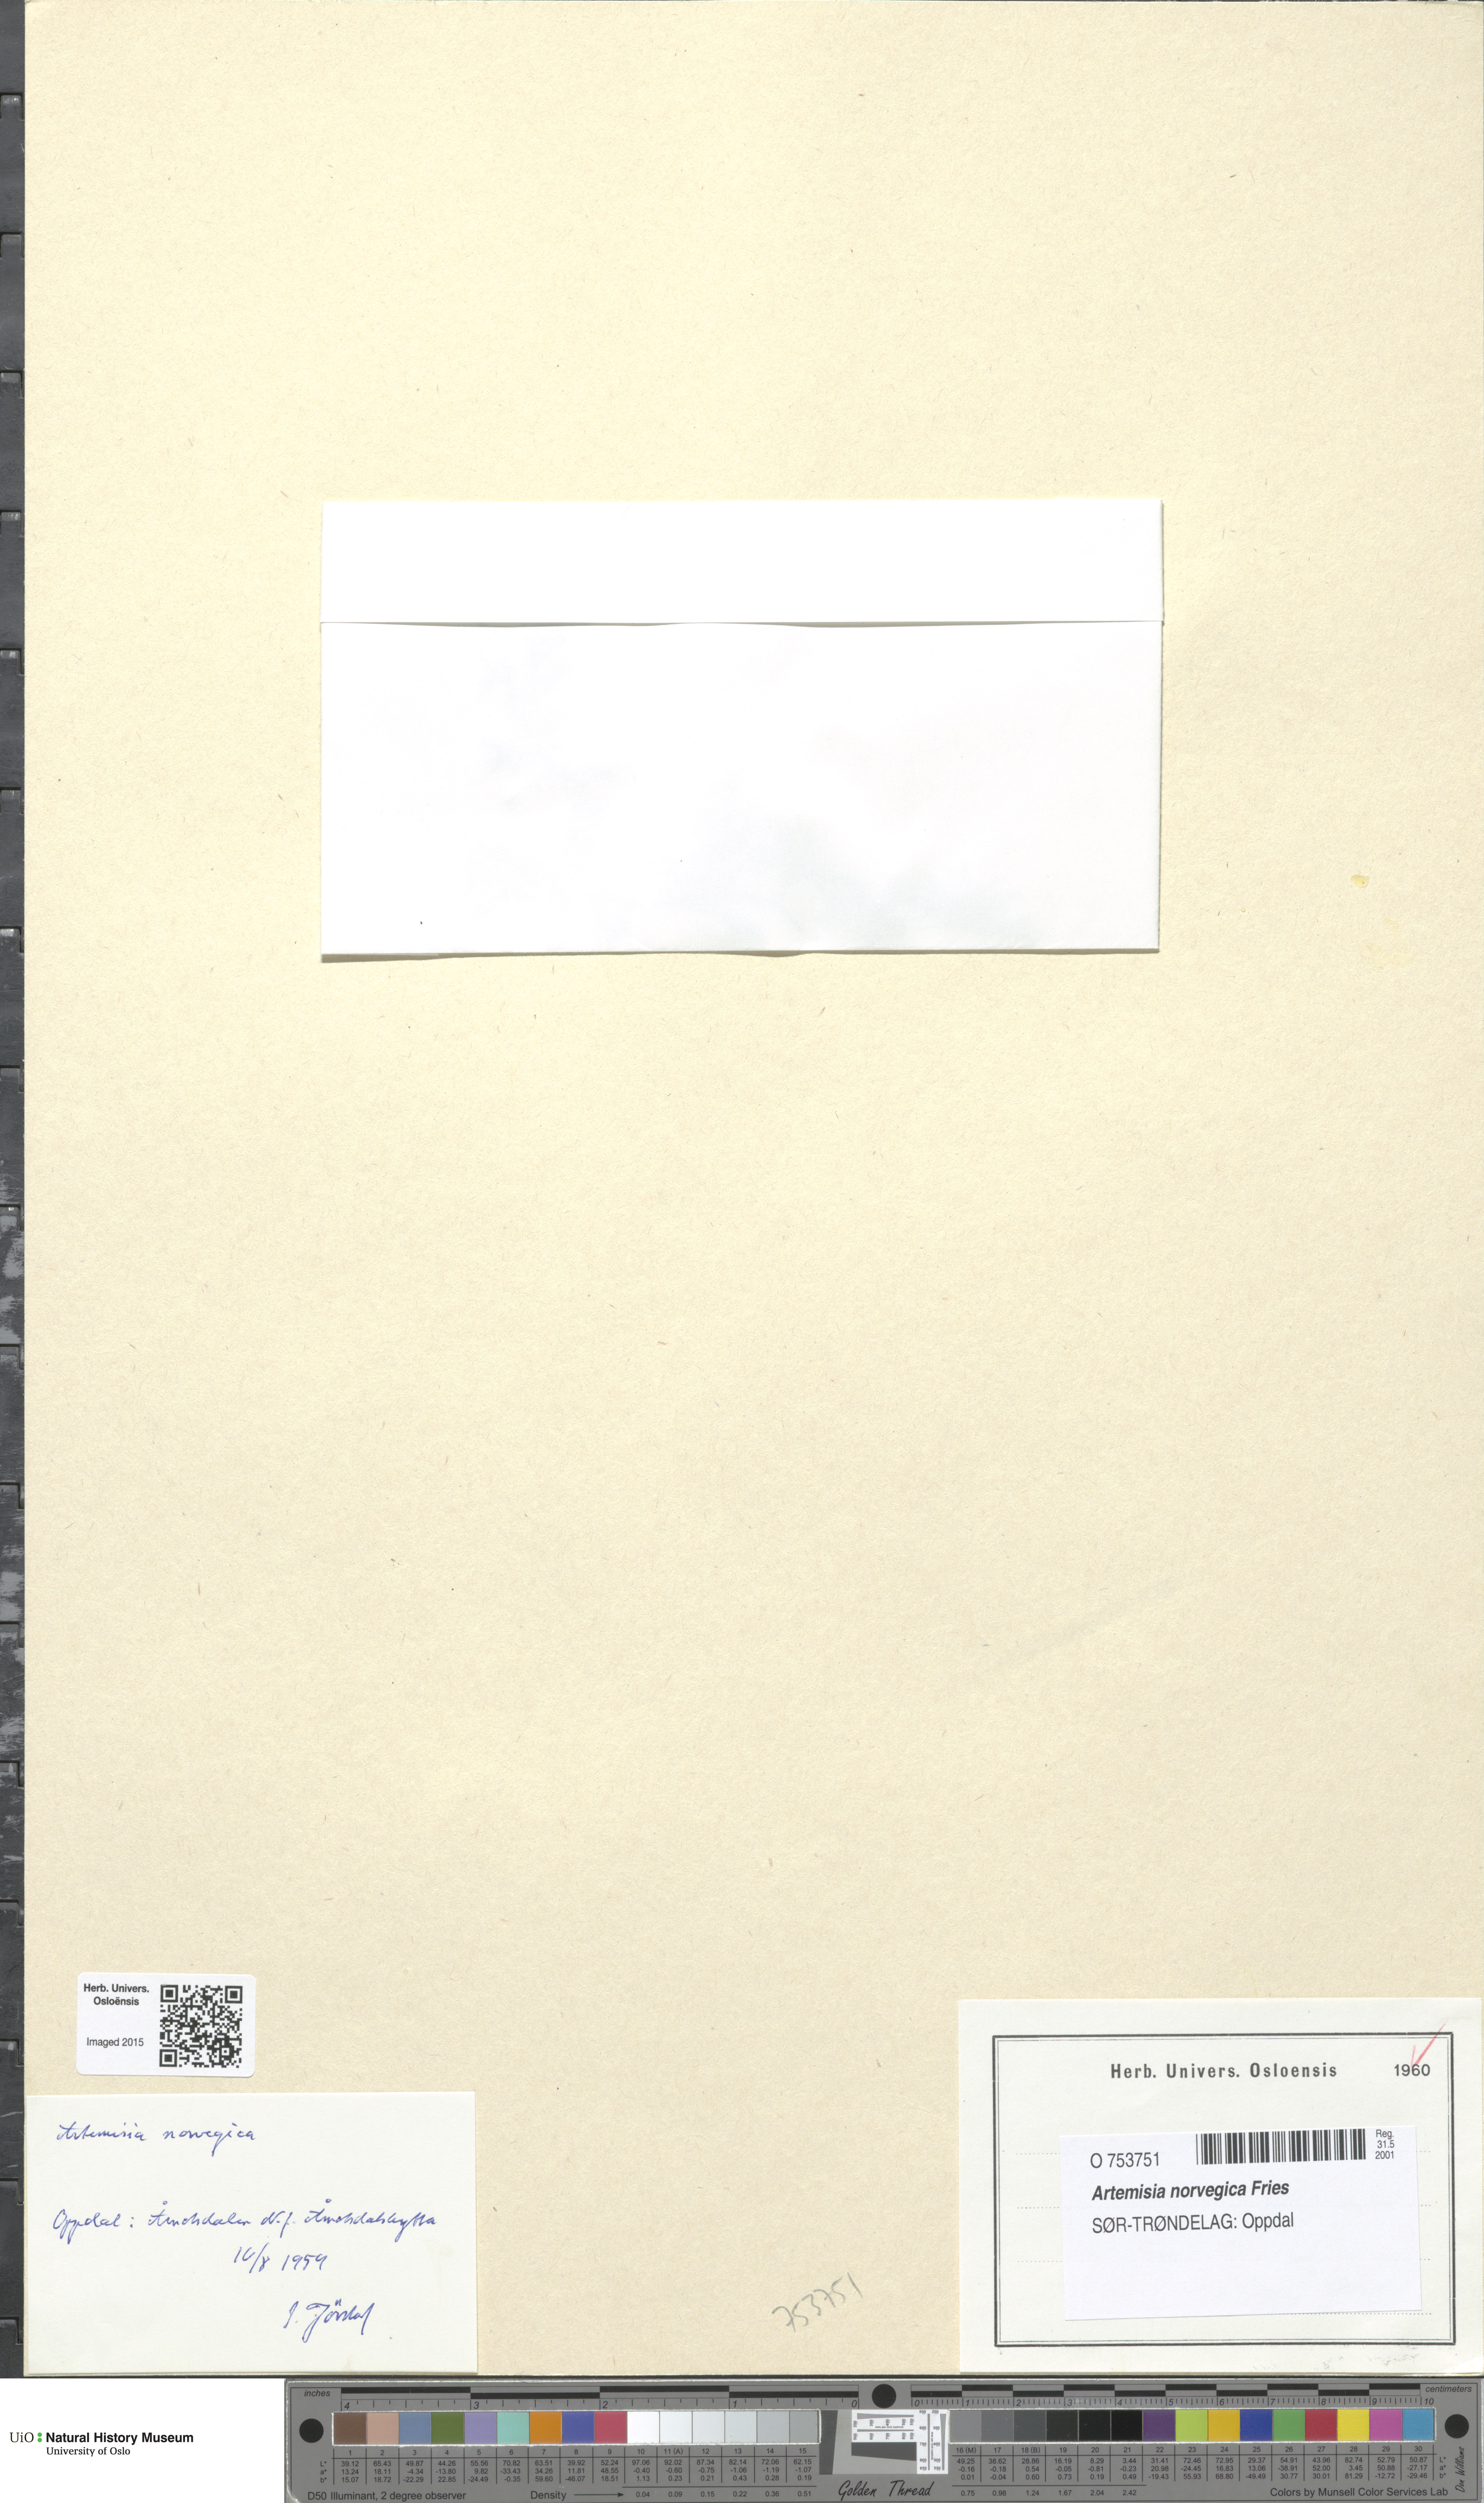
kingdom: Plantae
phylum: Tracheophyta
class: Magnoliopsida
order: Asterales
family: Asteraceae
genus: Artemisia
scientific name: Artemisia norvegica
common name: Norwegian mugwort
